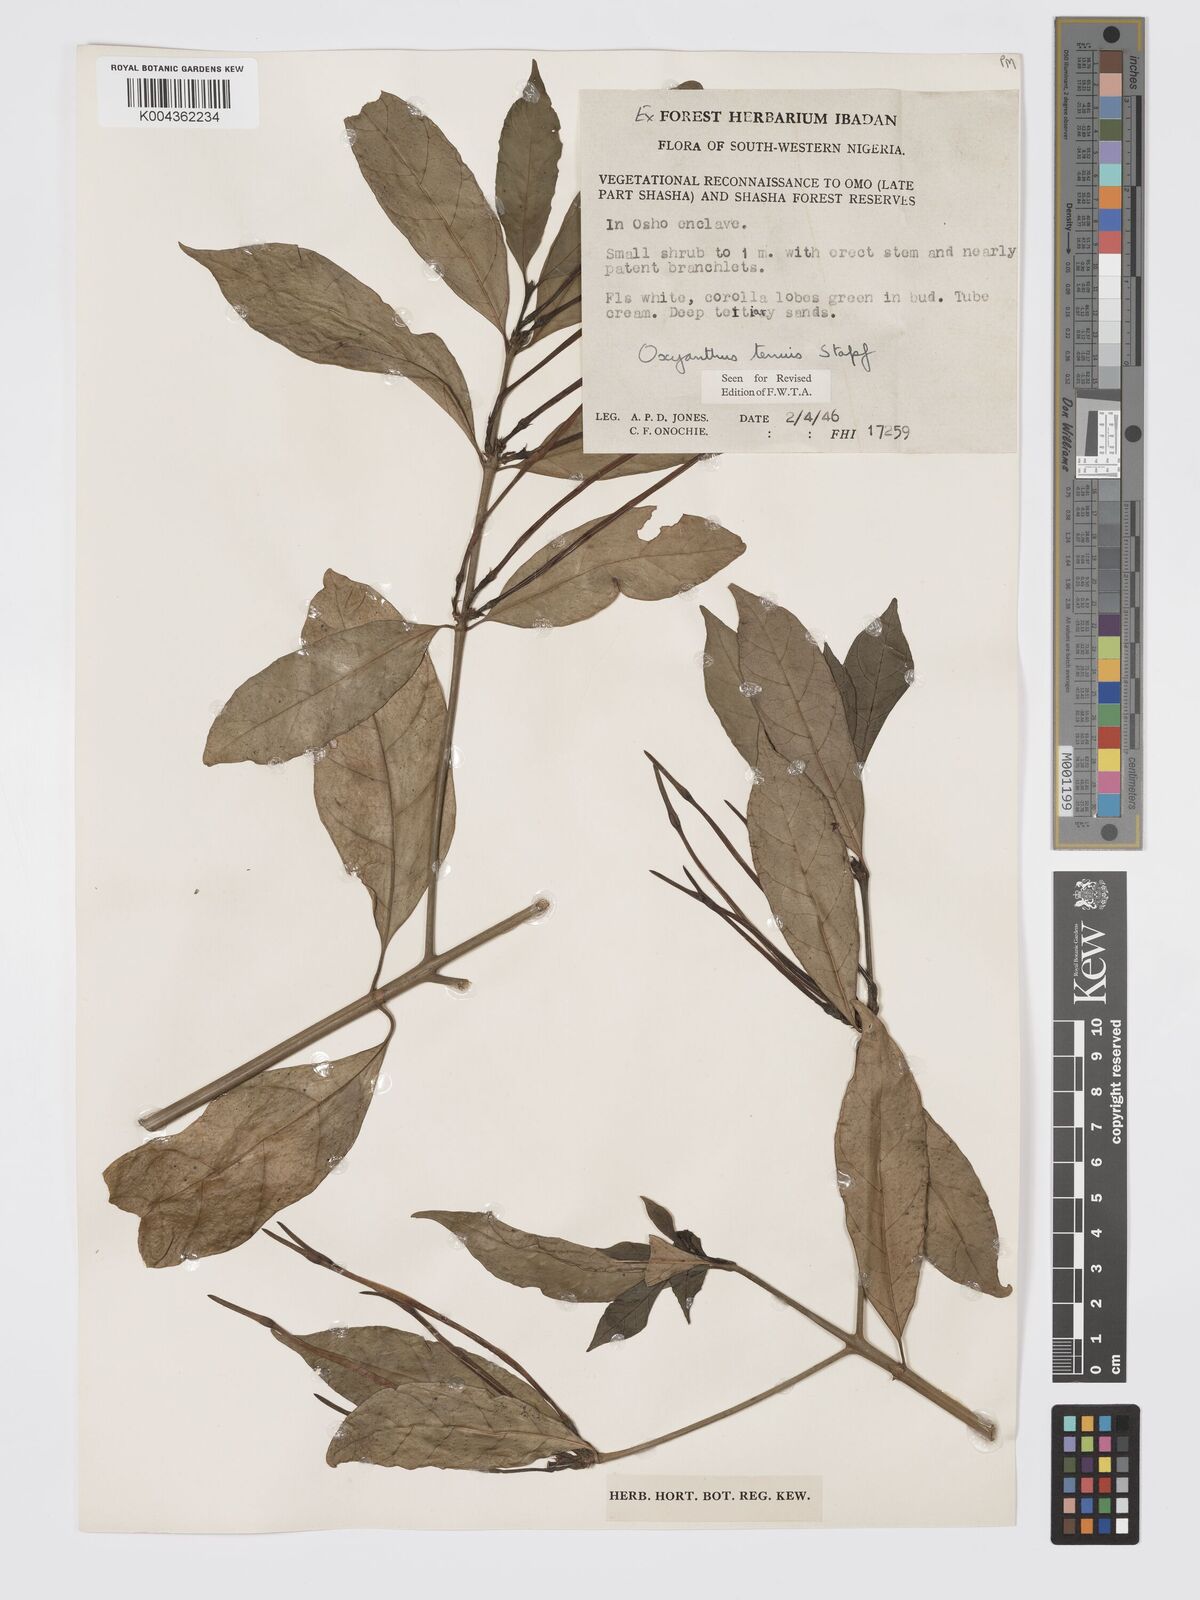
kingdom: Plantae
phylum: Tracheophyta
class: Magnoliopsida
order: Gentianales
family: Rubiaceae
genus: Oxyanthus
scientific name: Oxyanthus subpunctatus
